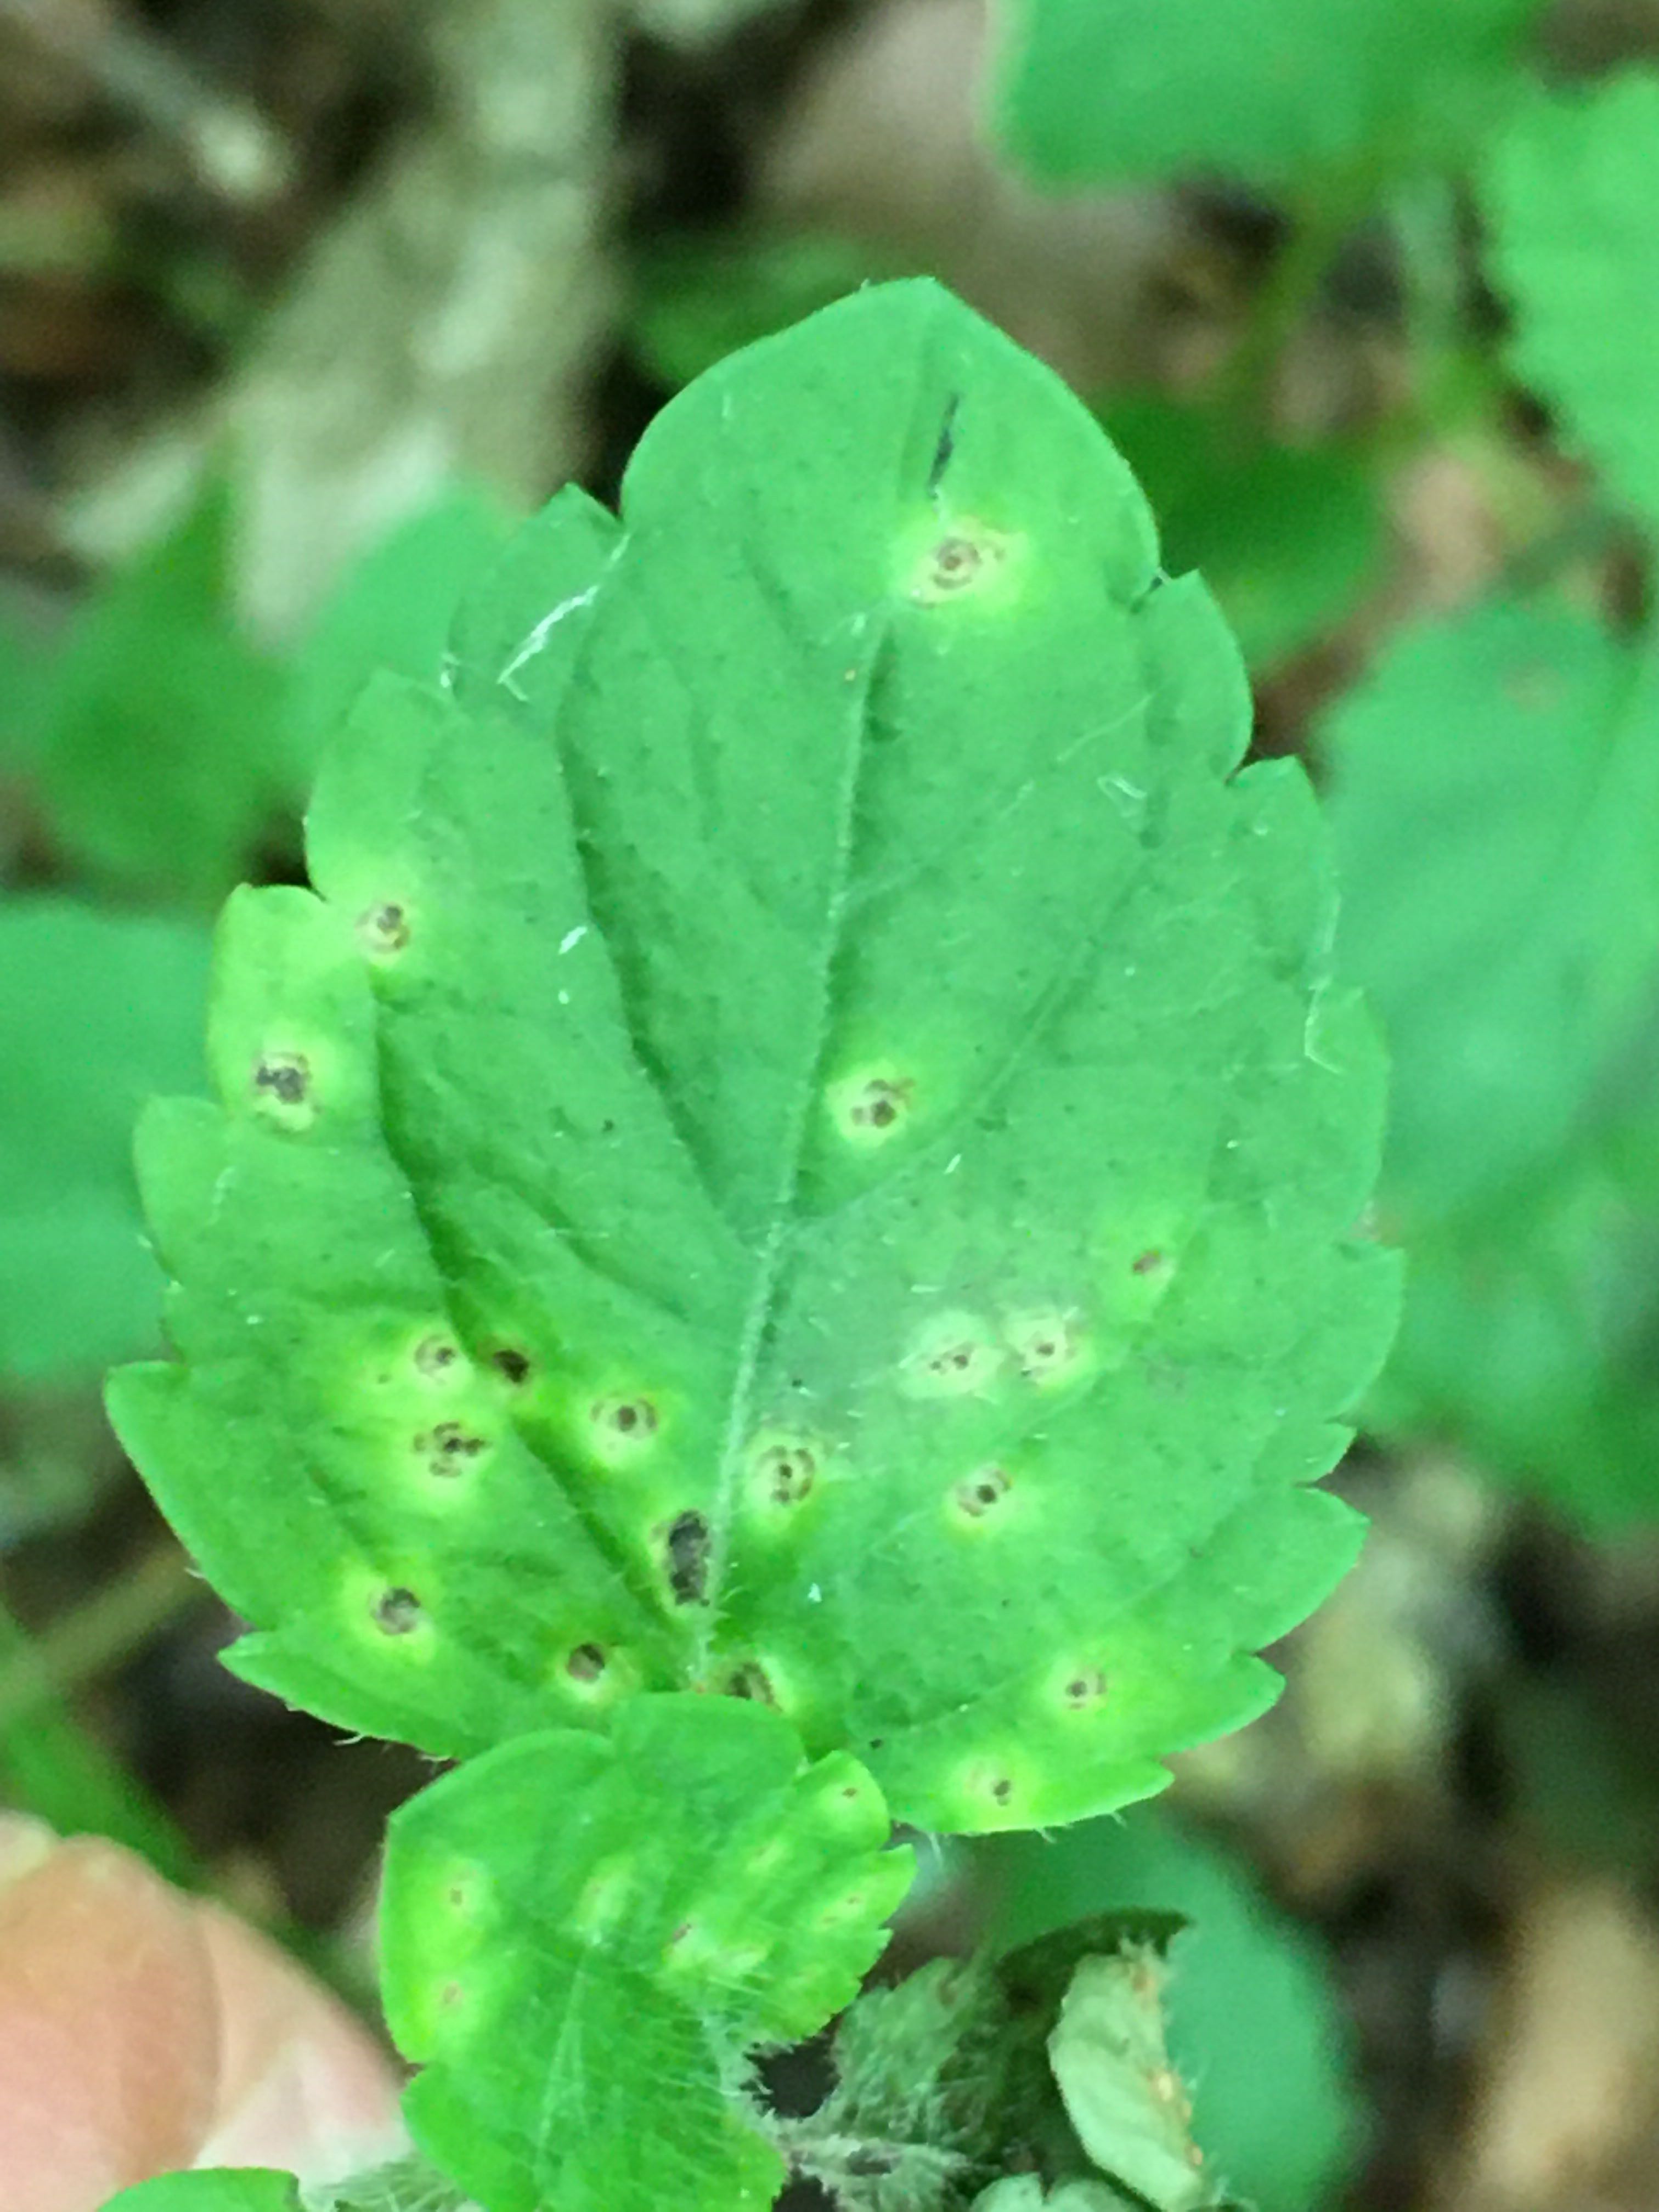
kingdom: Fungi
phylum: Basidiomycota
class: Pucciniomycetes
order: Pucciniales
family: Pucciniaceae
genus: Puccinia
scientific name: Puccinia veronicae
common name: Wood speedwell rust
